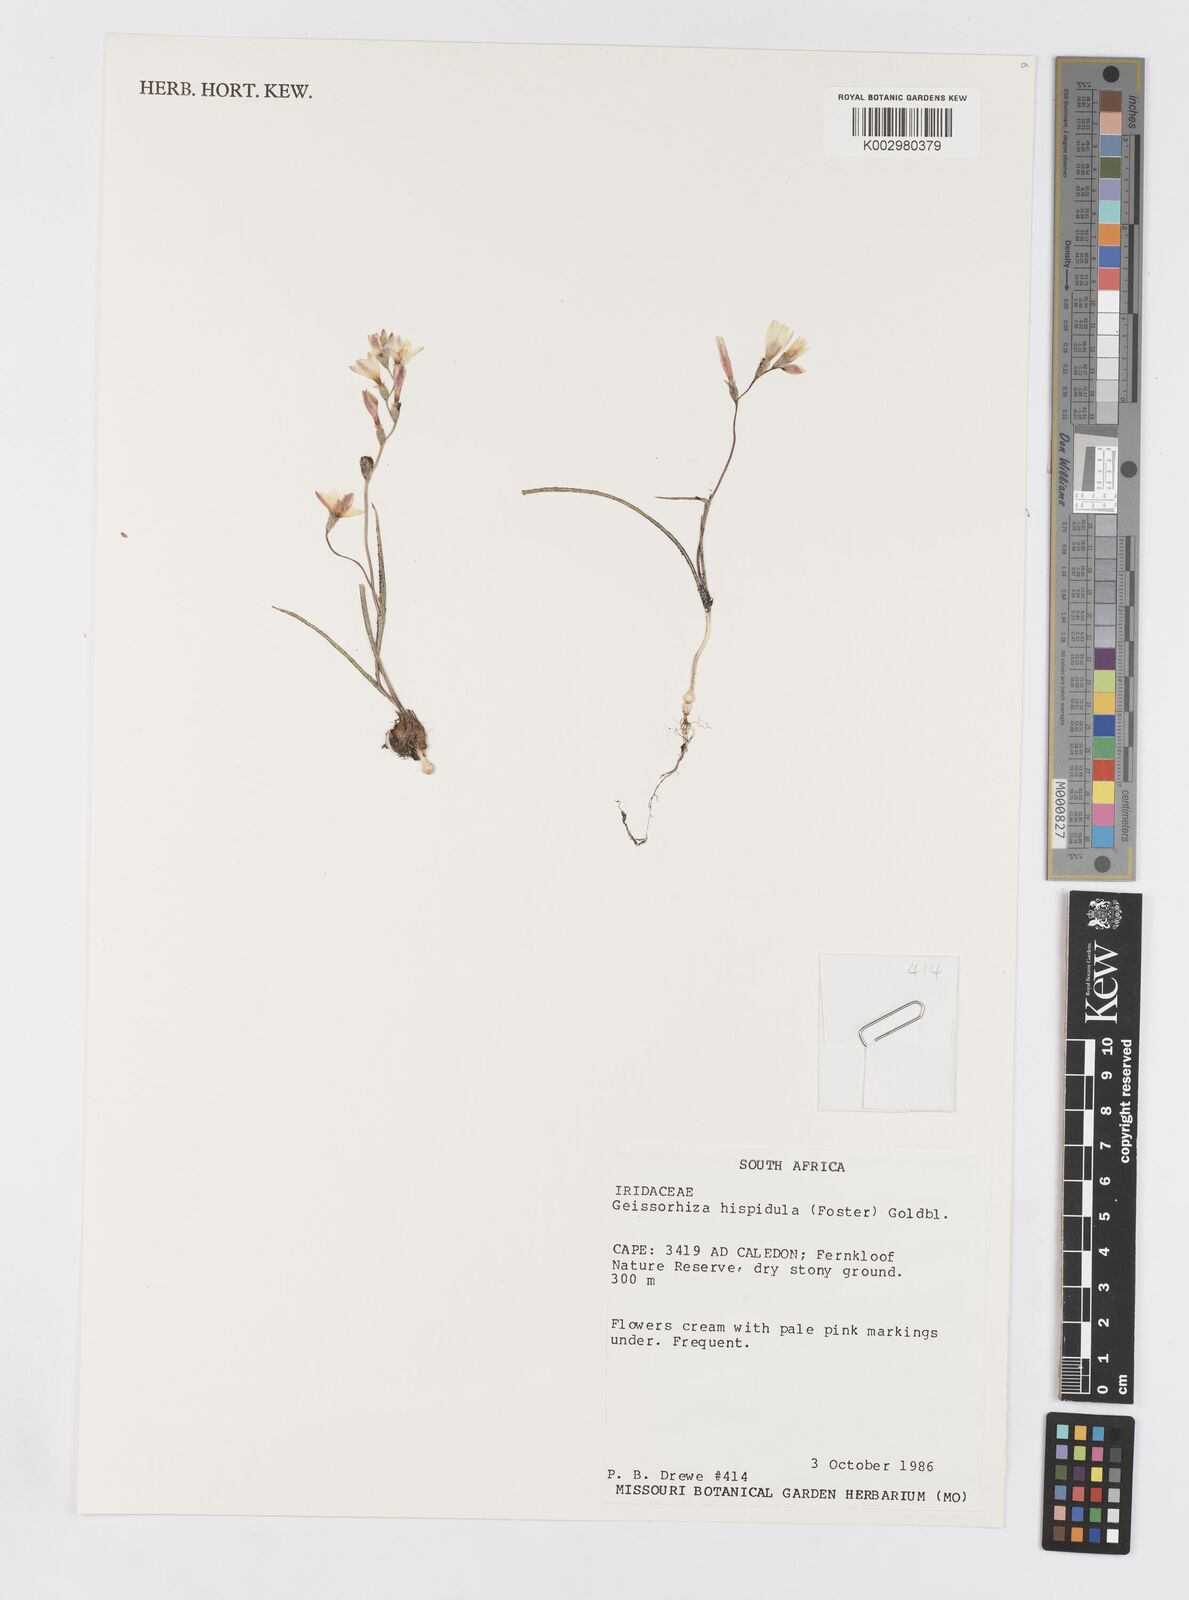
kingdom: Plantae
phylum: Tracheophyta
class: Liliopsida
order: Asparagales
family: Iridaceae
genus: Geissorhiza
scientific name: Geissorhiza hispidula
